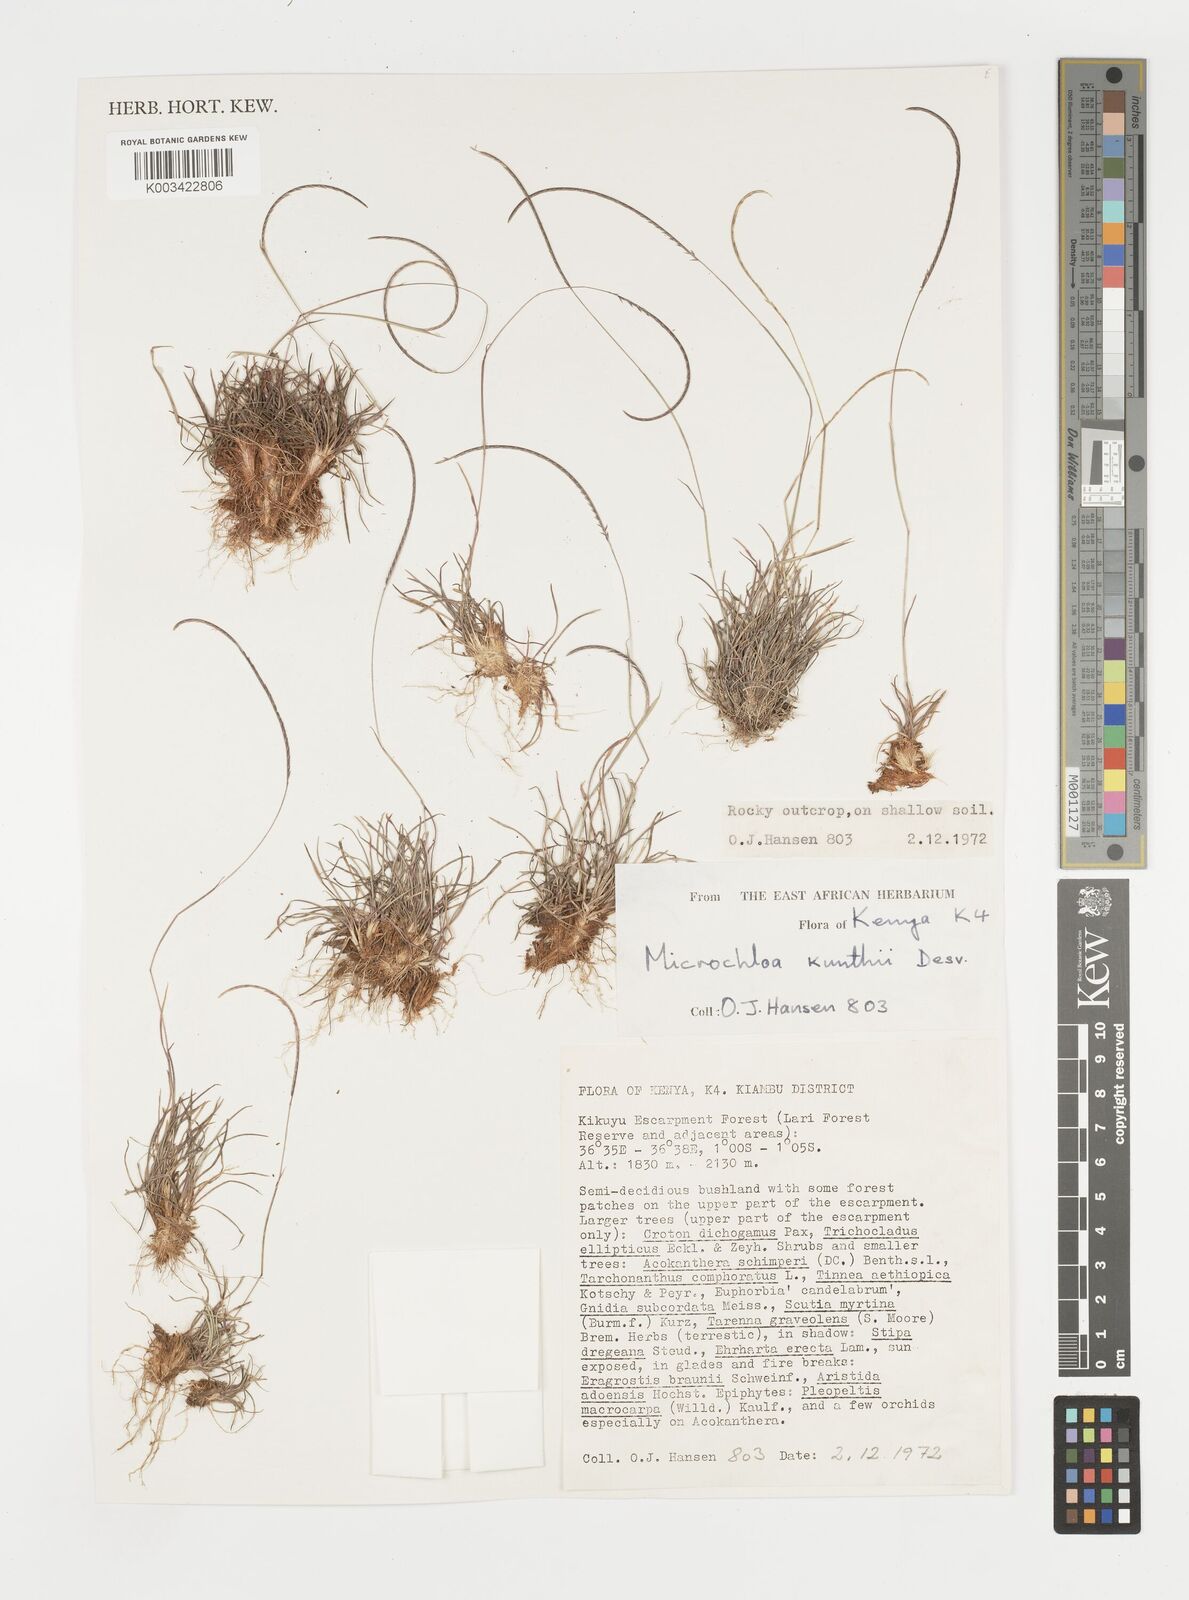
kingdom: Plantae
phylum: Tracheophyta
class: Liliopsida
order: Poales
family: Poaceae
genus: Microchloa
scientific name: Microchloa kunthii
